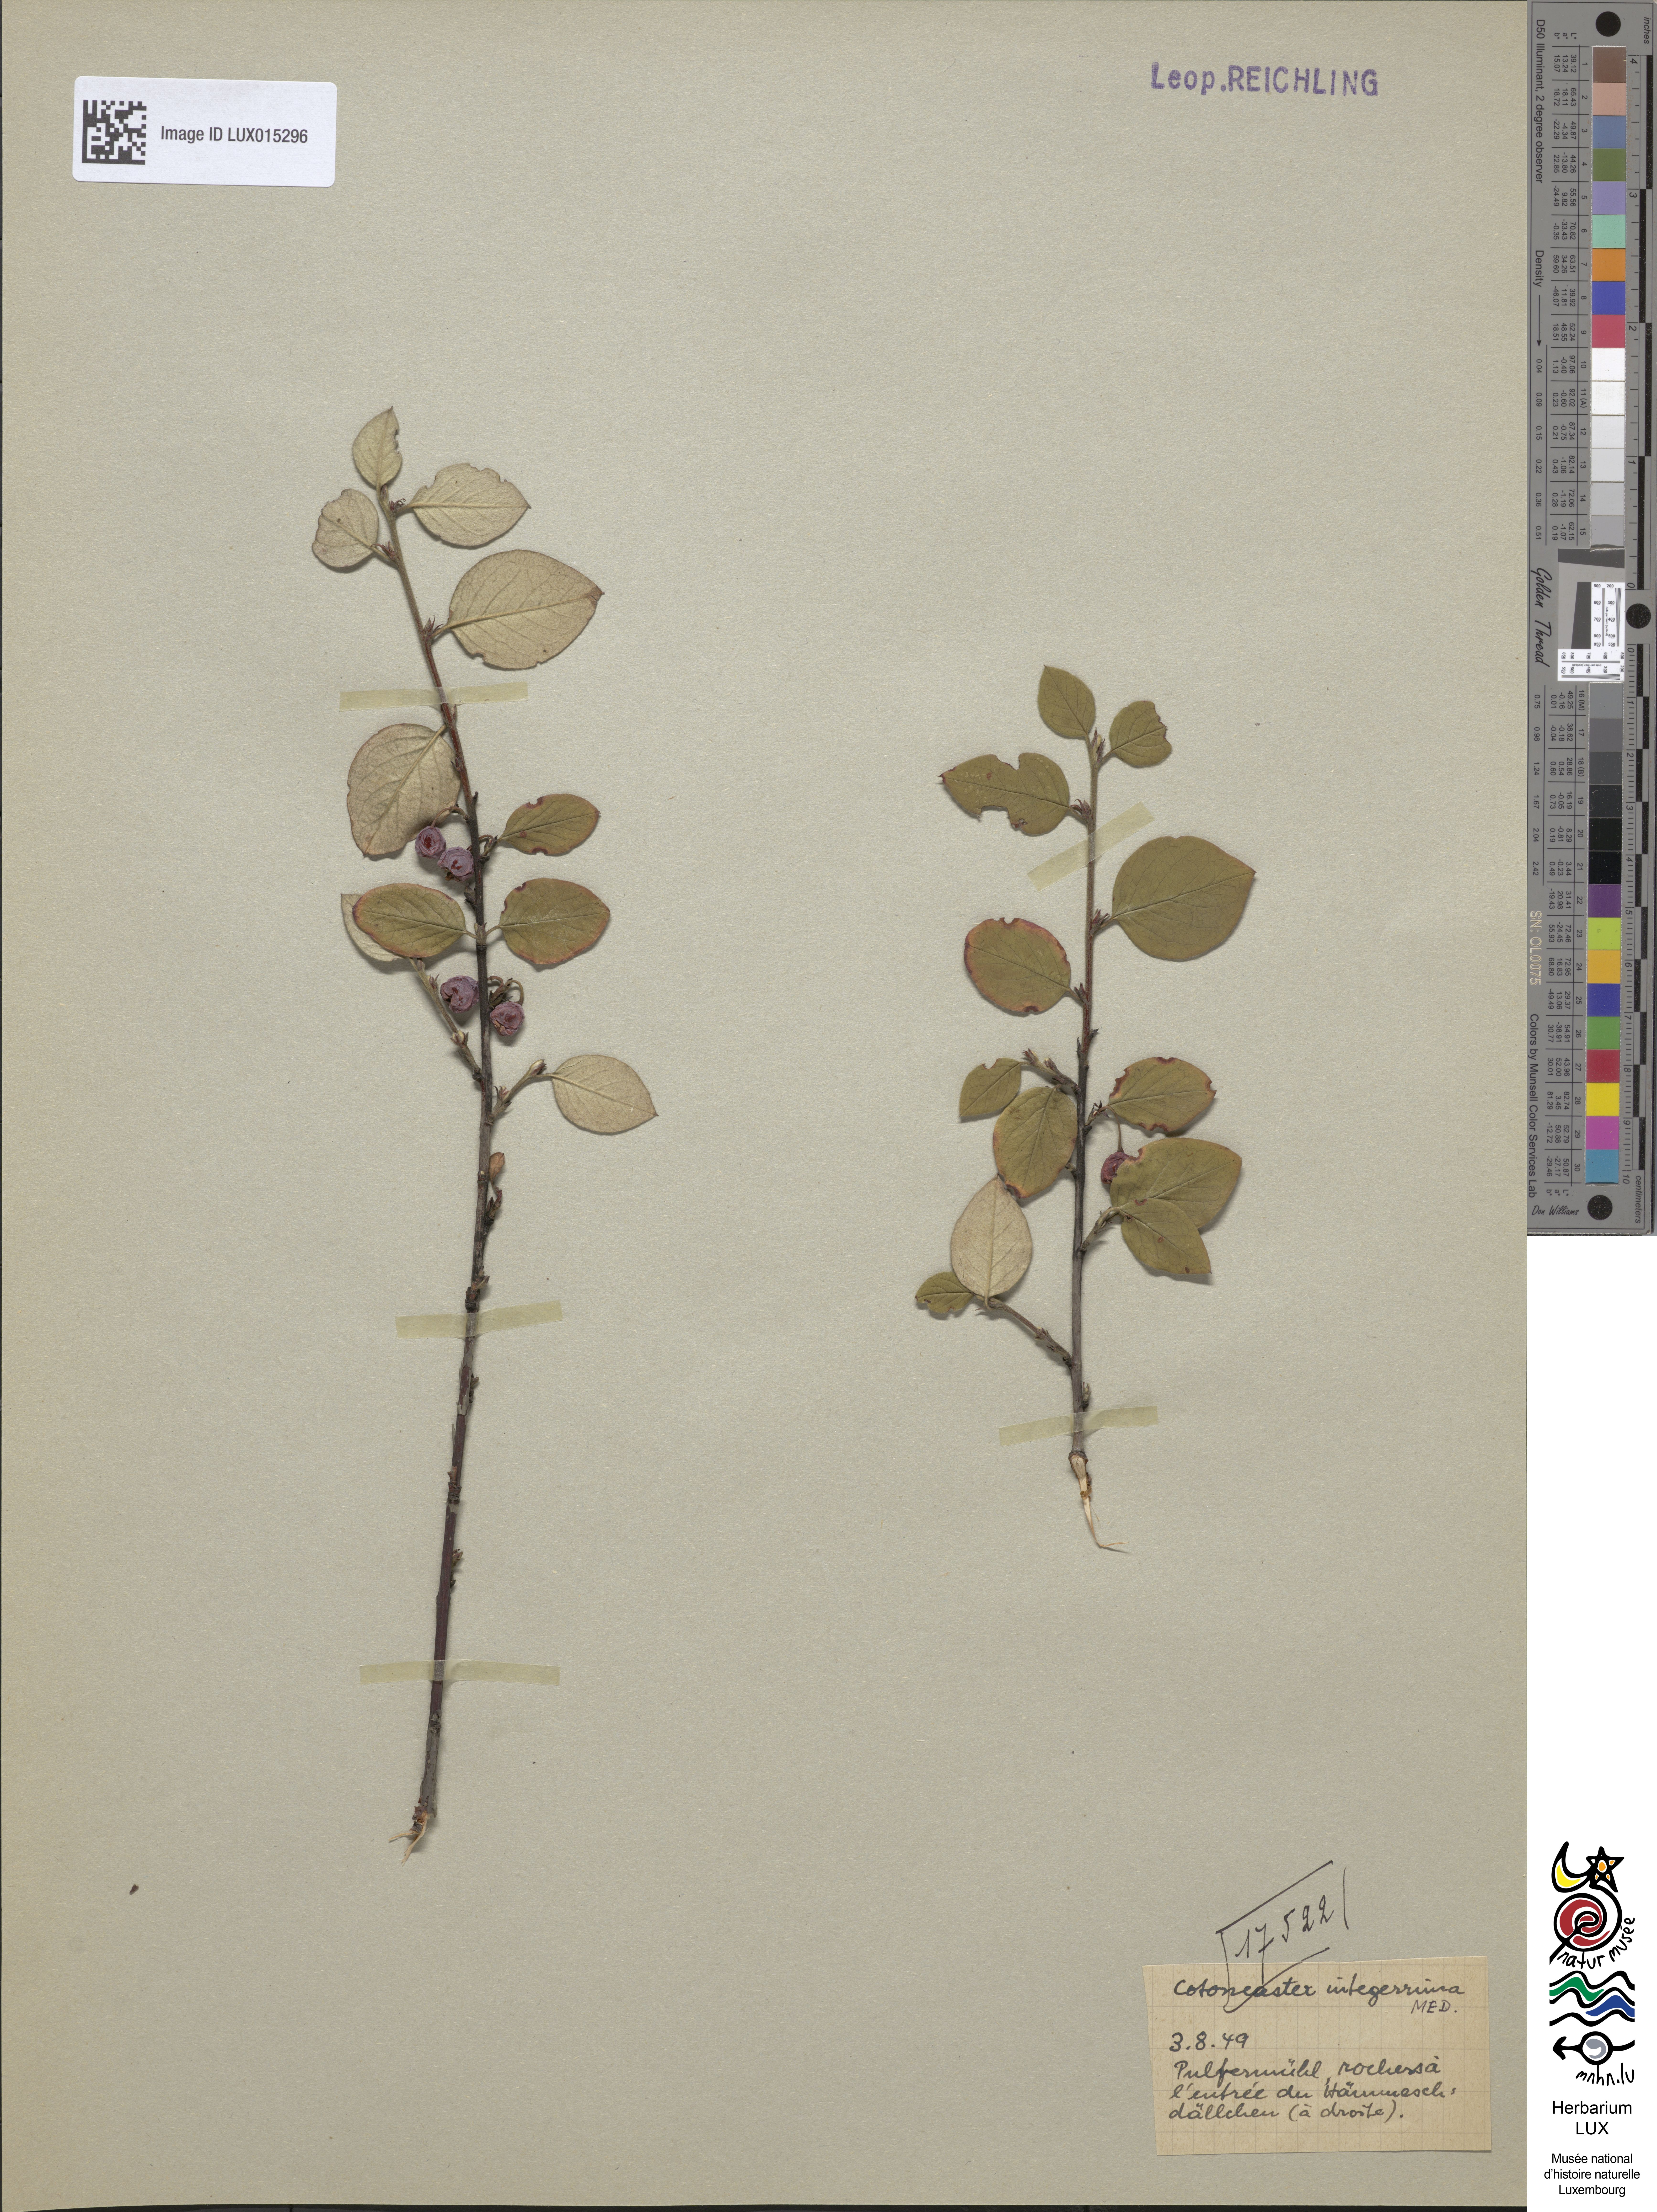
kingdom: Plantae
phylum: Tracheophyta
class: Magnoliopsida
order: Rosales
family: Rosaceae
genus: Cotoneaster
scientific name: Cotoneaster integerrimus
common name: Wild cotoneaster
